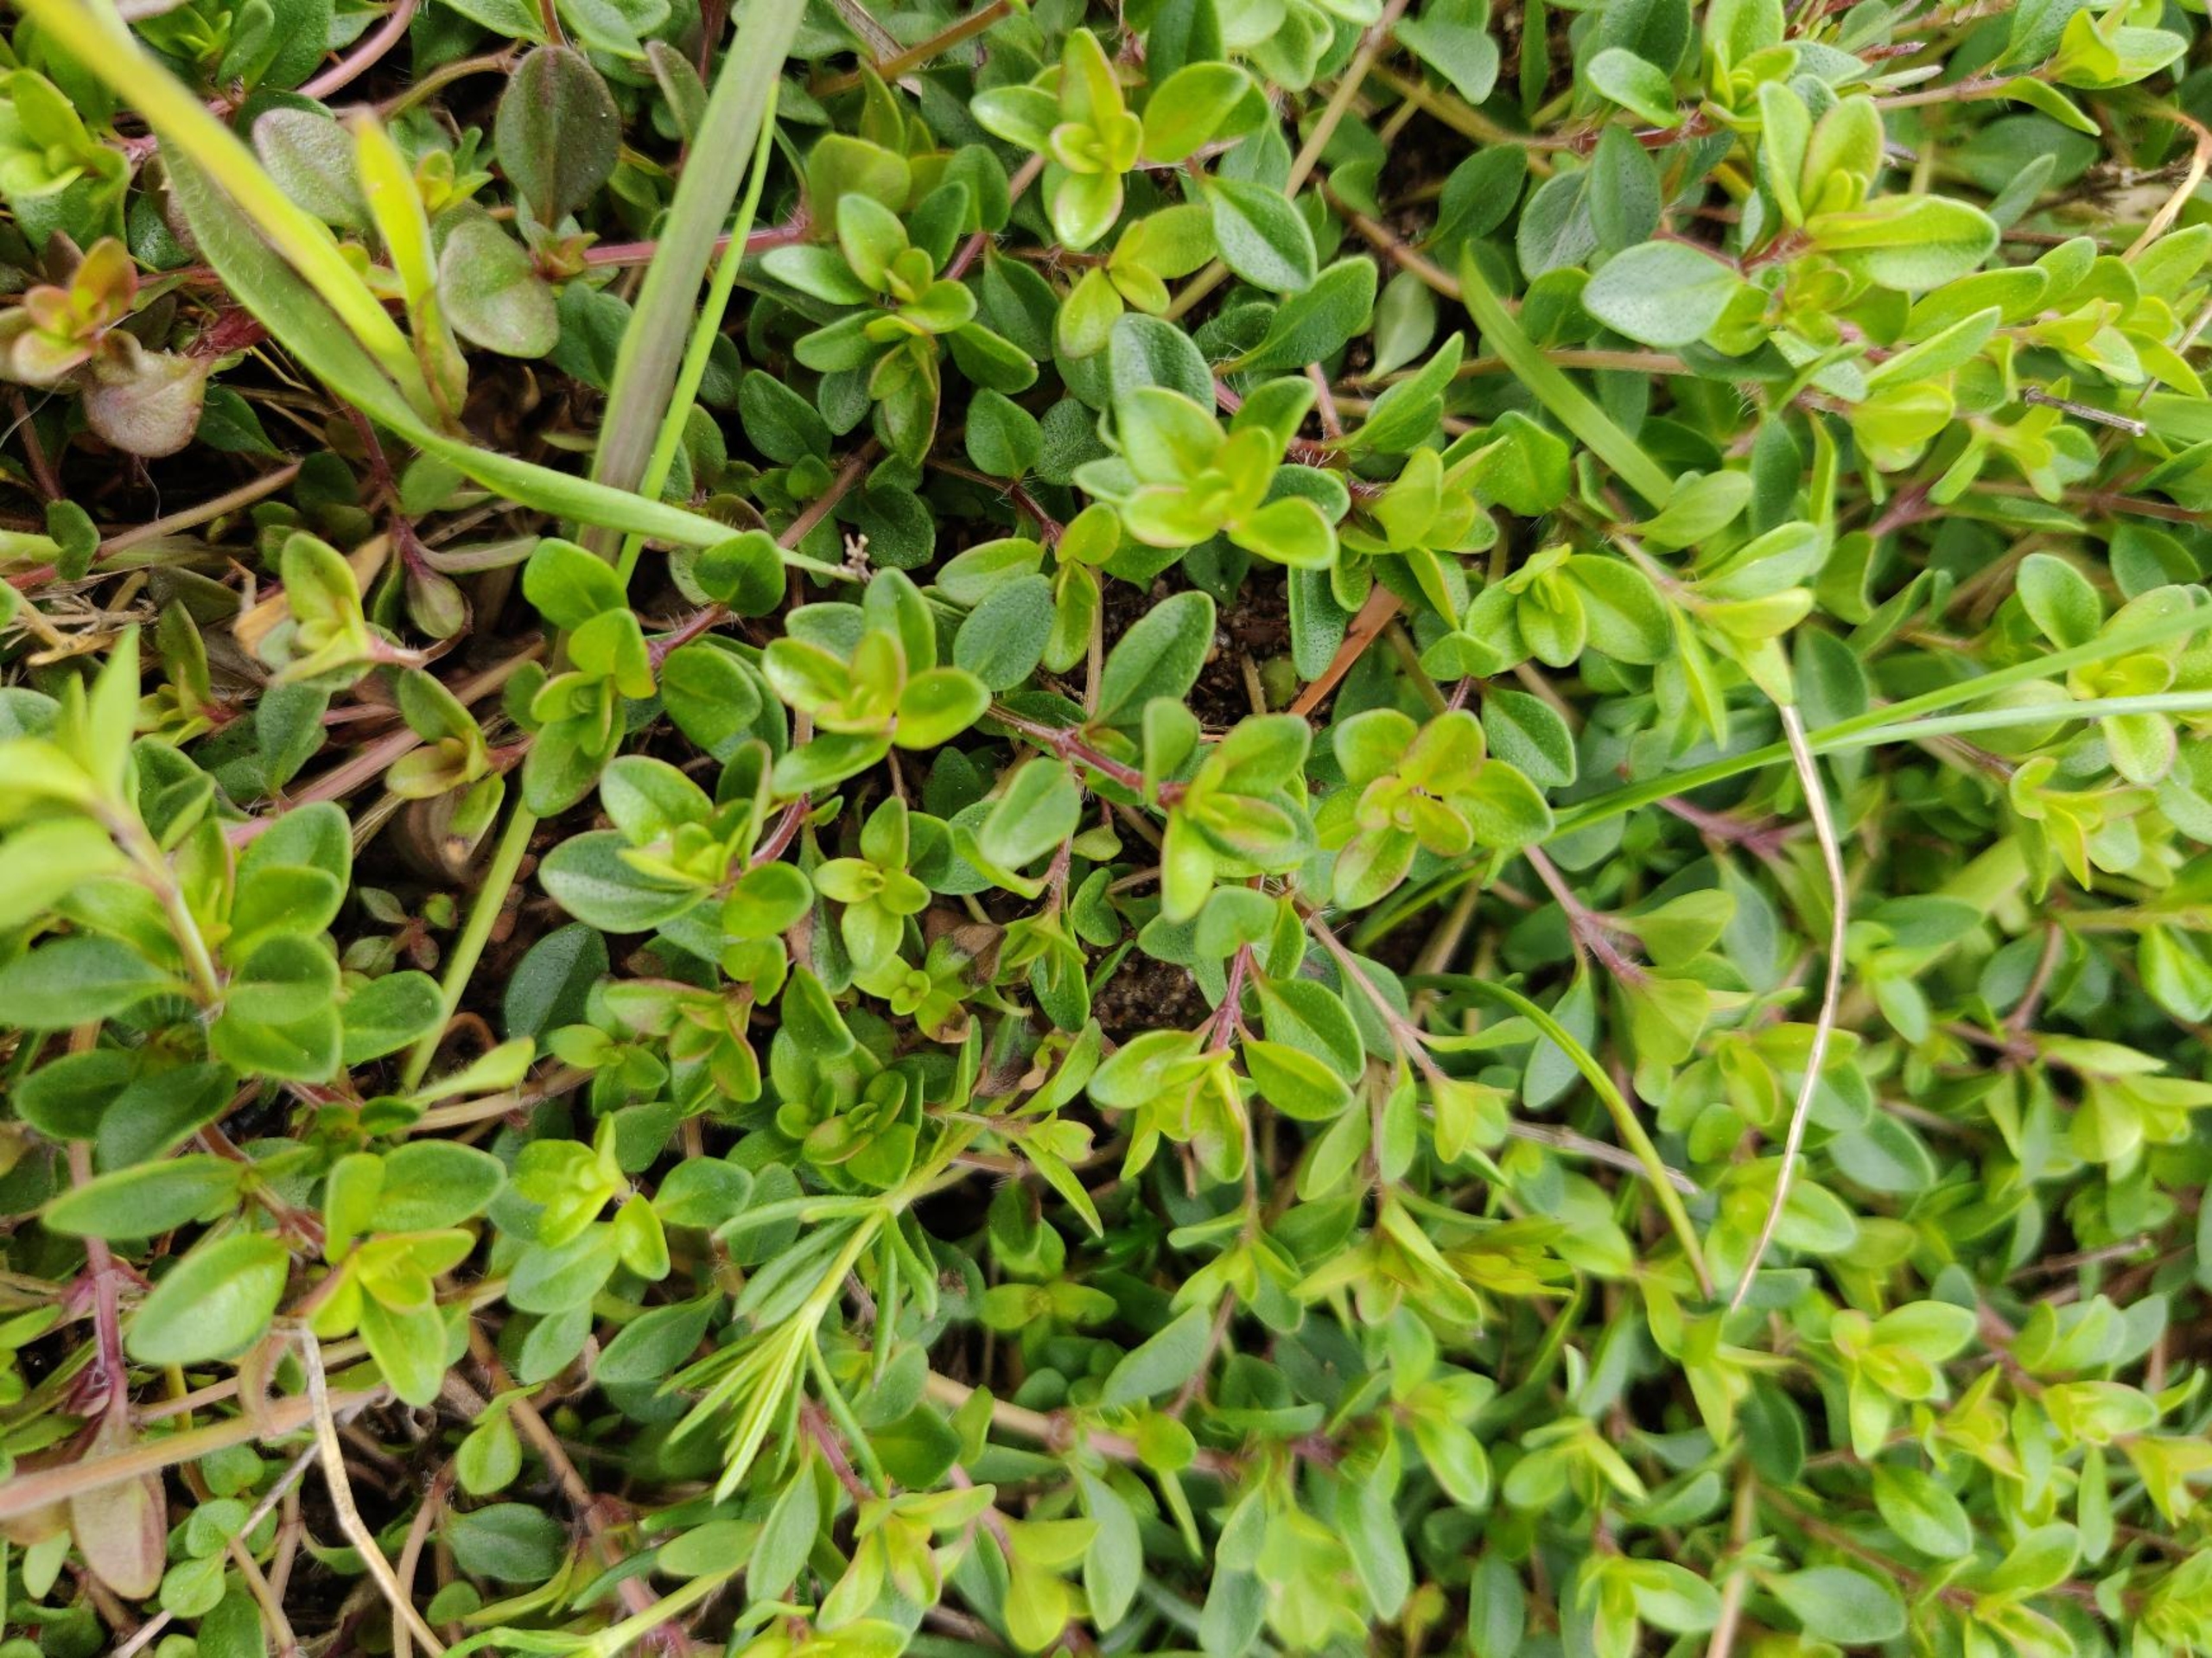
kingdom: Plantae
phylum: Tracheophyta
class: Magnoliopsida
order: Lamiales
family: Lamiaceae
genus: Thymus
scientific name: Thymus pulegioides
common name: Bredbladet timian
